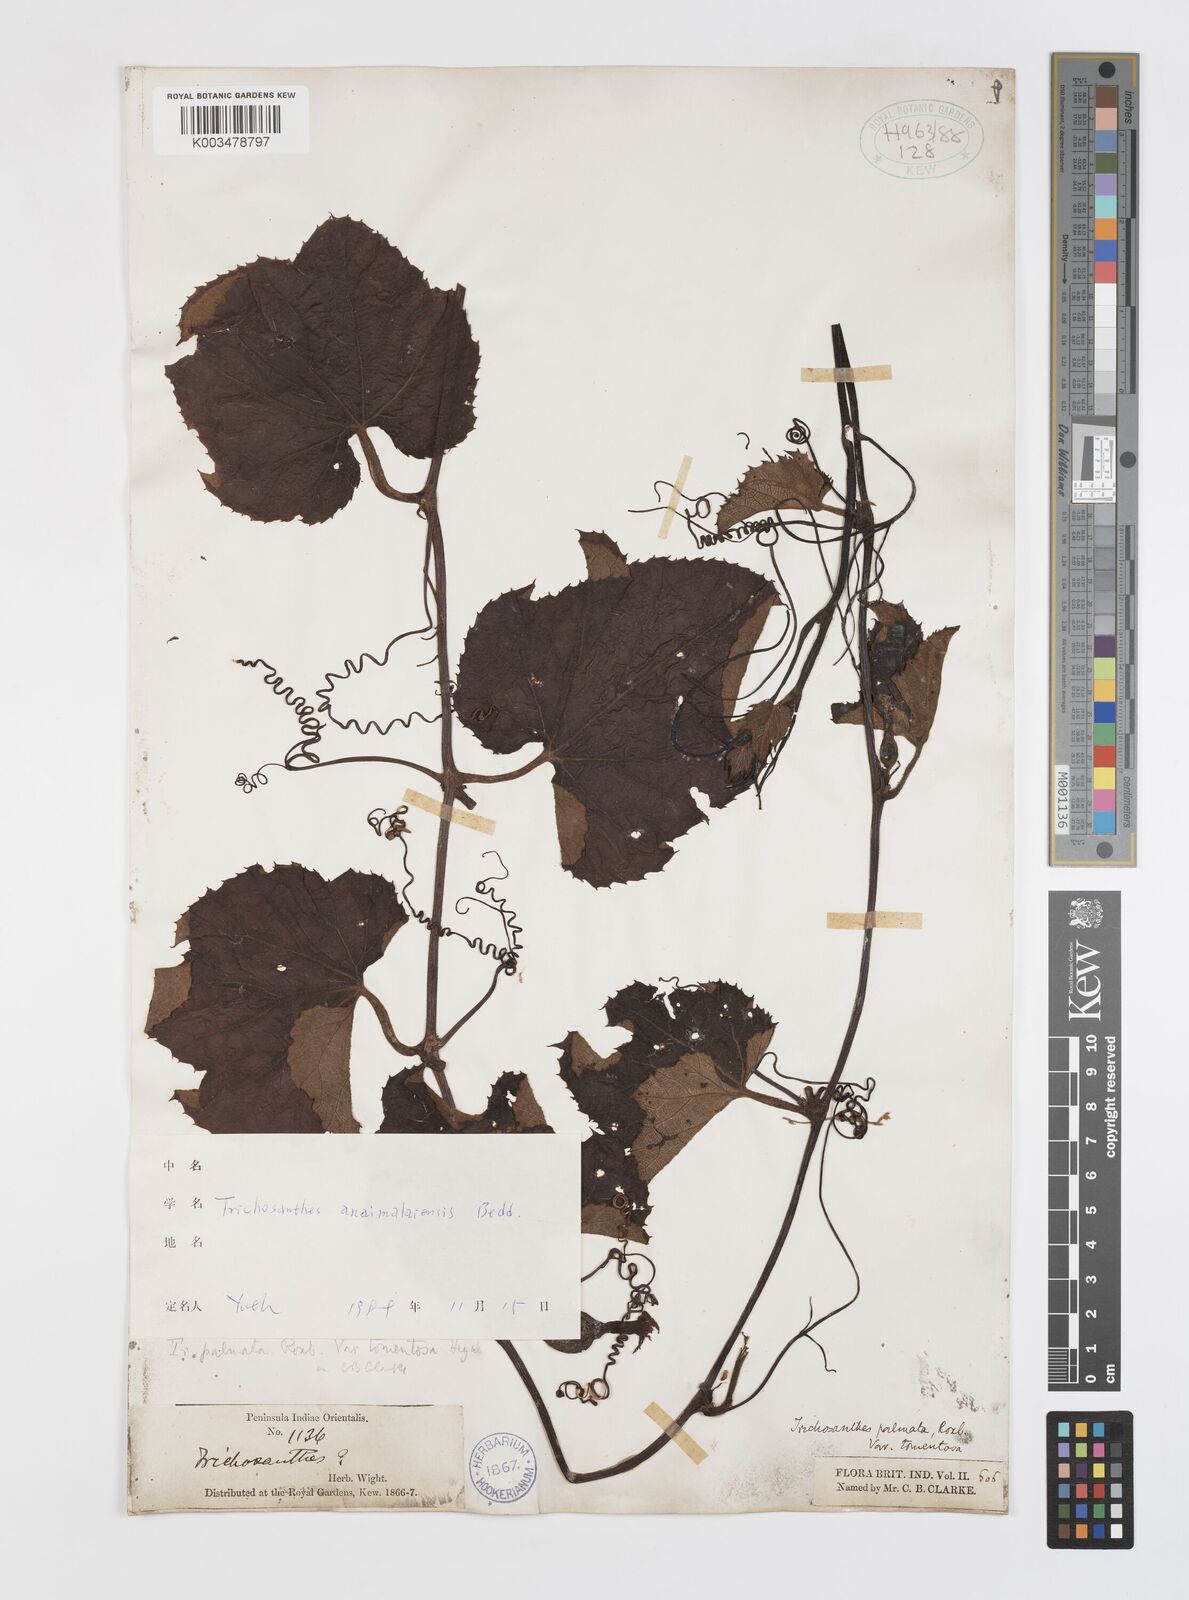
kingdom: Plantae
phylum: Tracheophyta
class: Magnoliopsida
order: Cucurbitales
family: Cucurbitaceae
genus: Trichosanthes
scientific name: Trichosanthes anaimalaiensis
